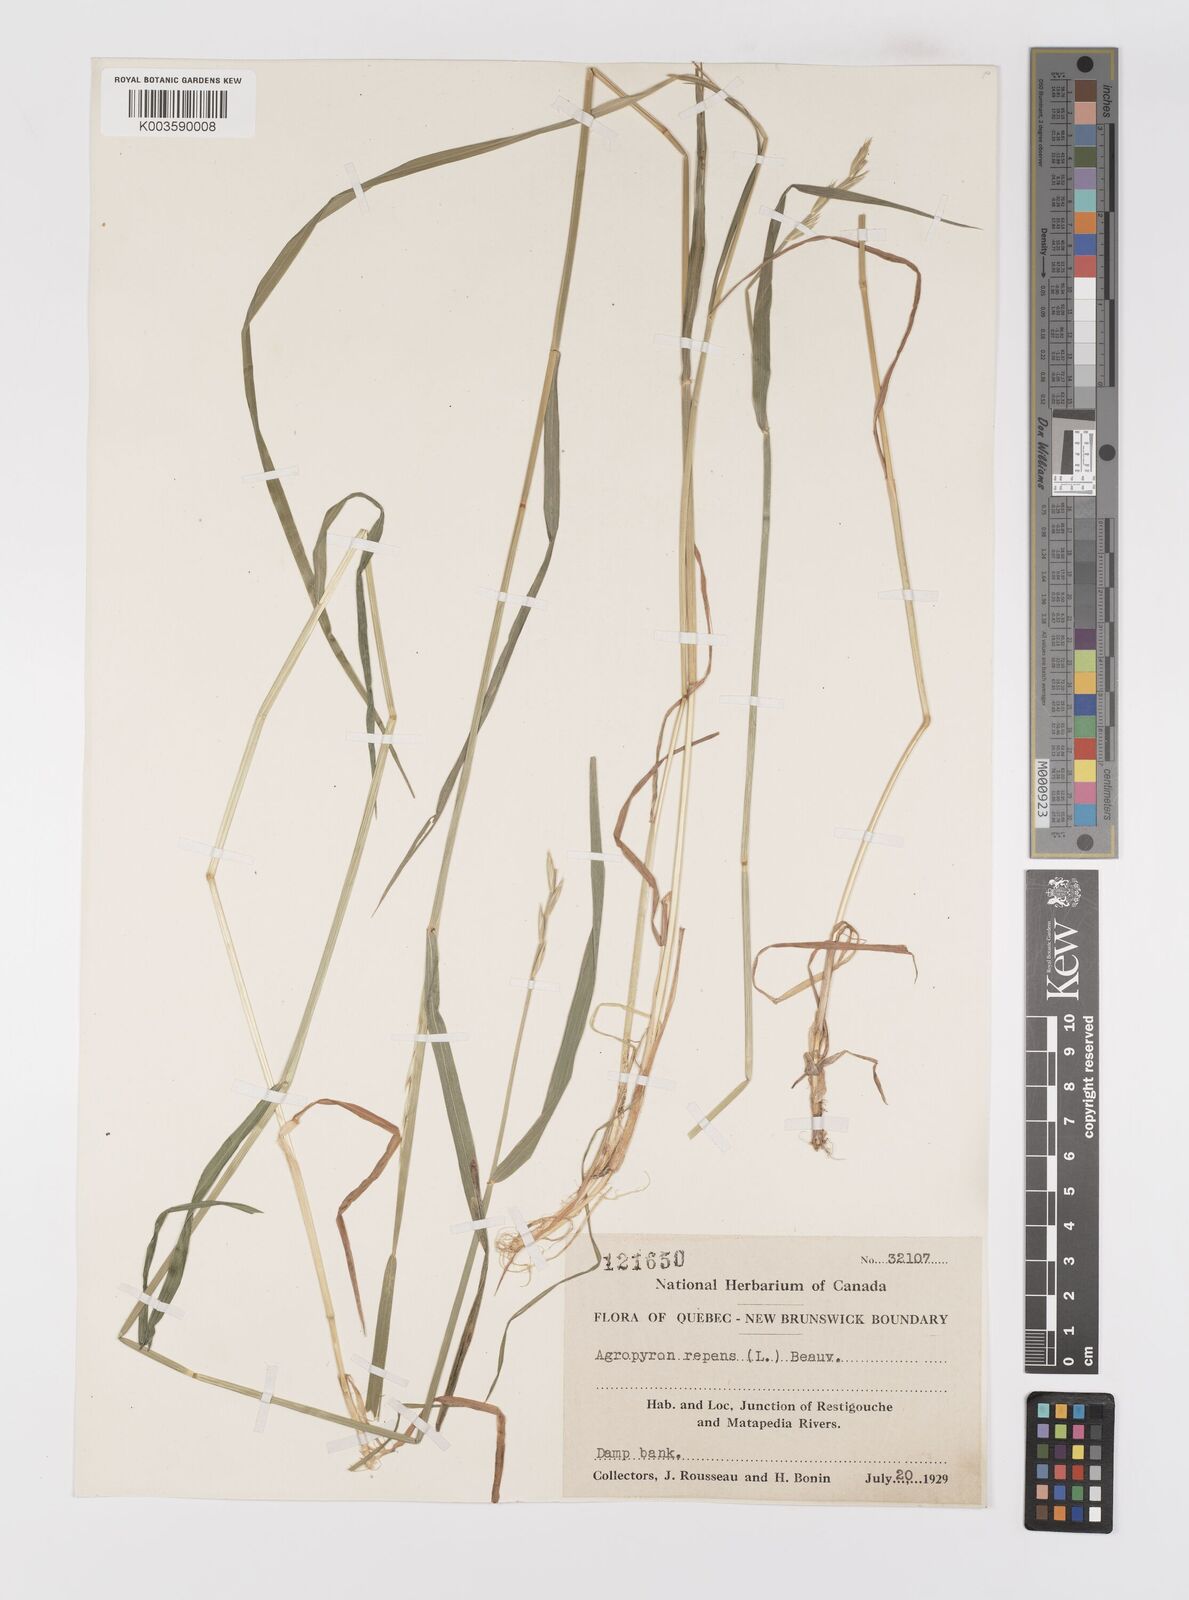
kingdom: Plantae
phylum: Tracheophyta
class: Liliopsida
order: Poales
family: Poaceae
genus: Elymus
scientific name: Elymus repens
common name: Quackgrass
